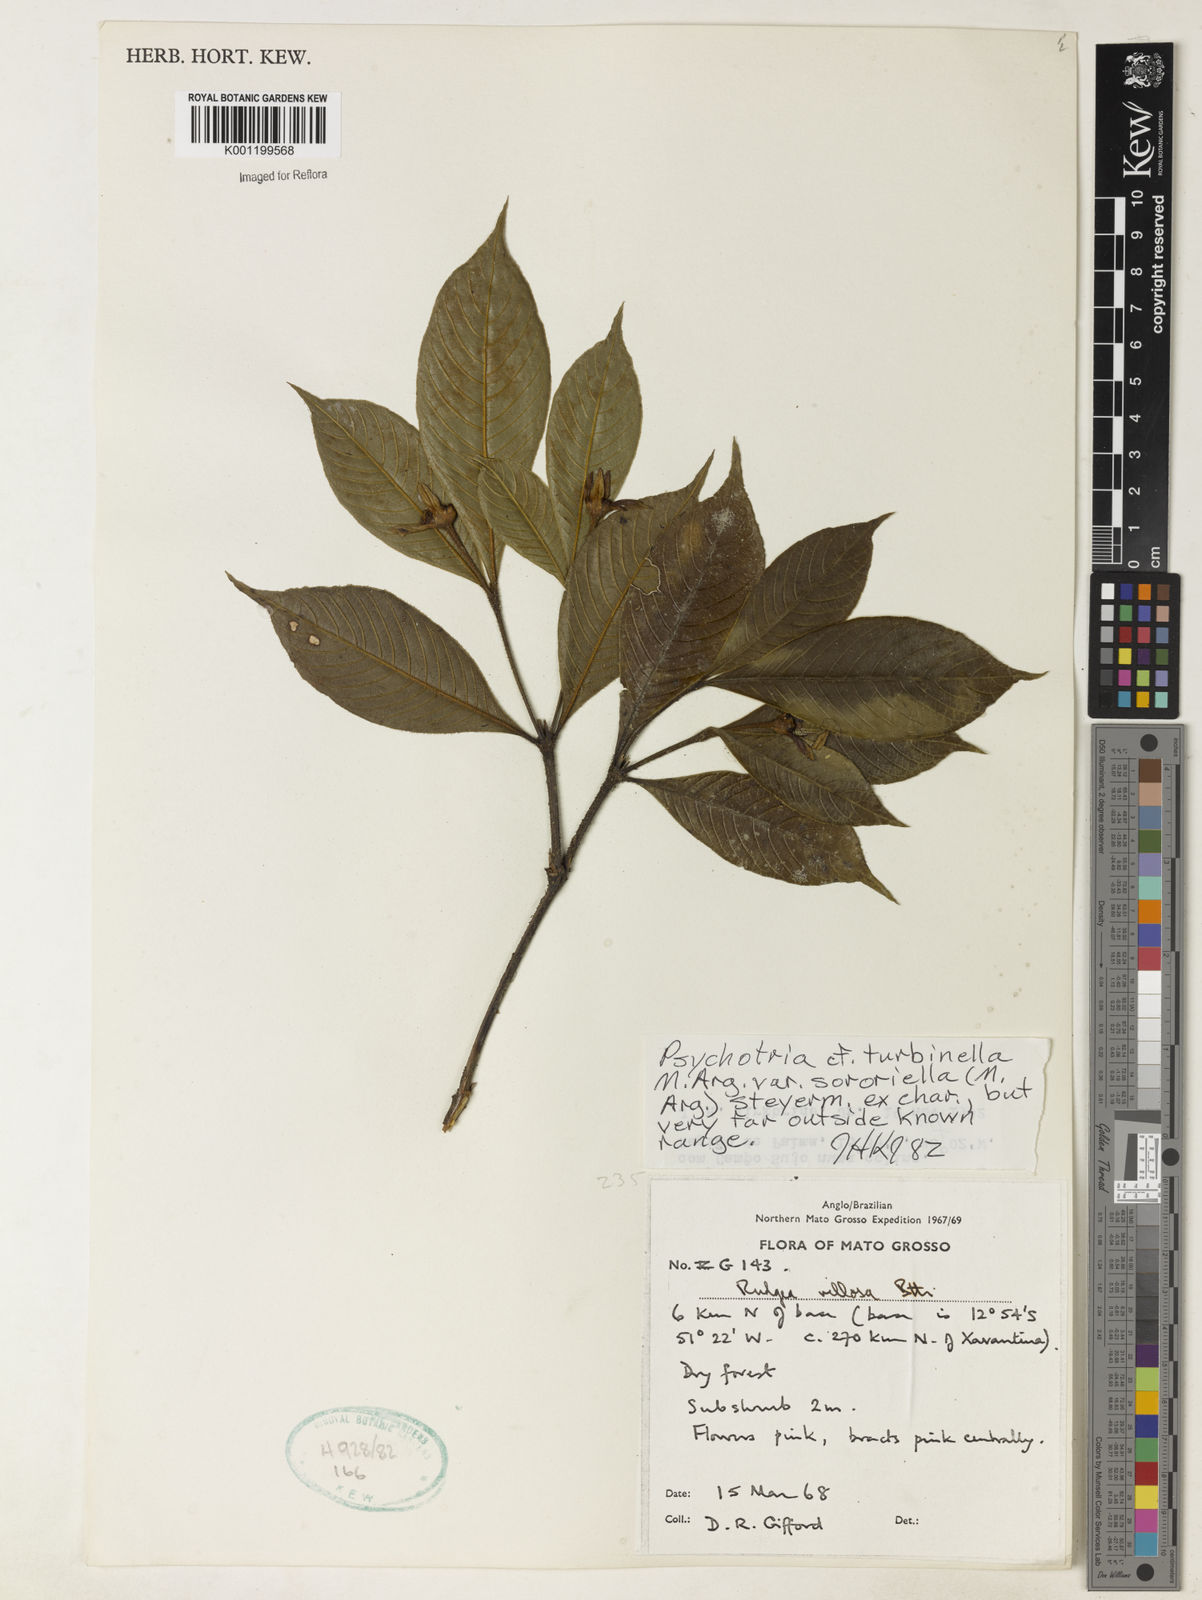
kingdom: Plantae
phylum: Tracheophyta
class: Magnoliopsida
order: Gentianales
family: Rubiaceae
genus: Psychotria
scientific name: Psychotria
